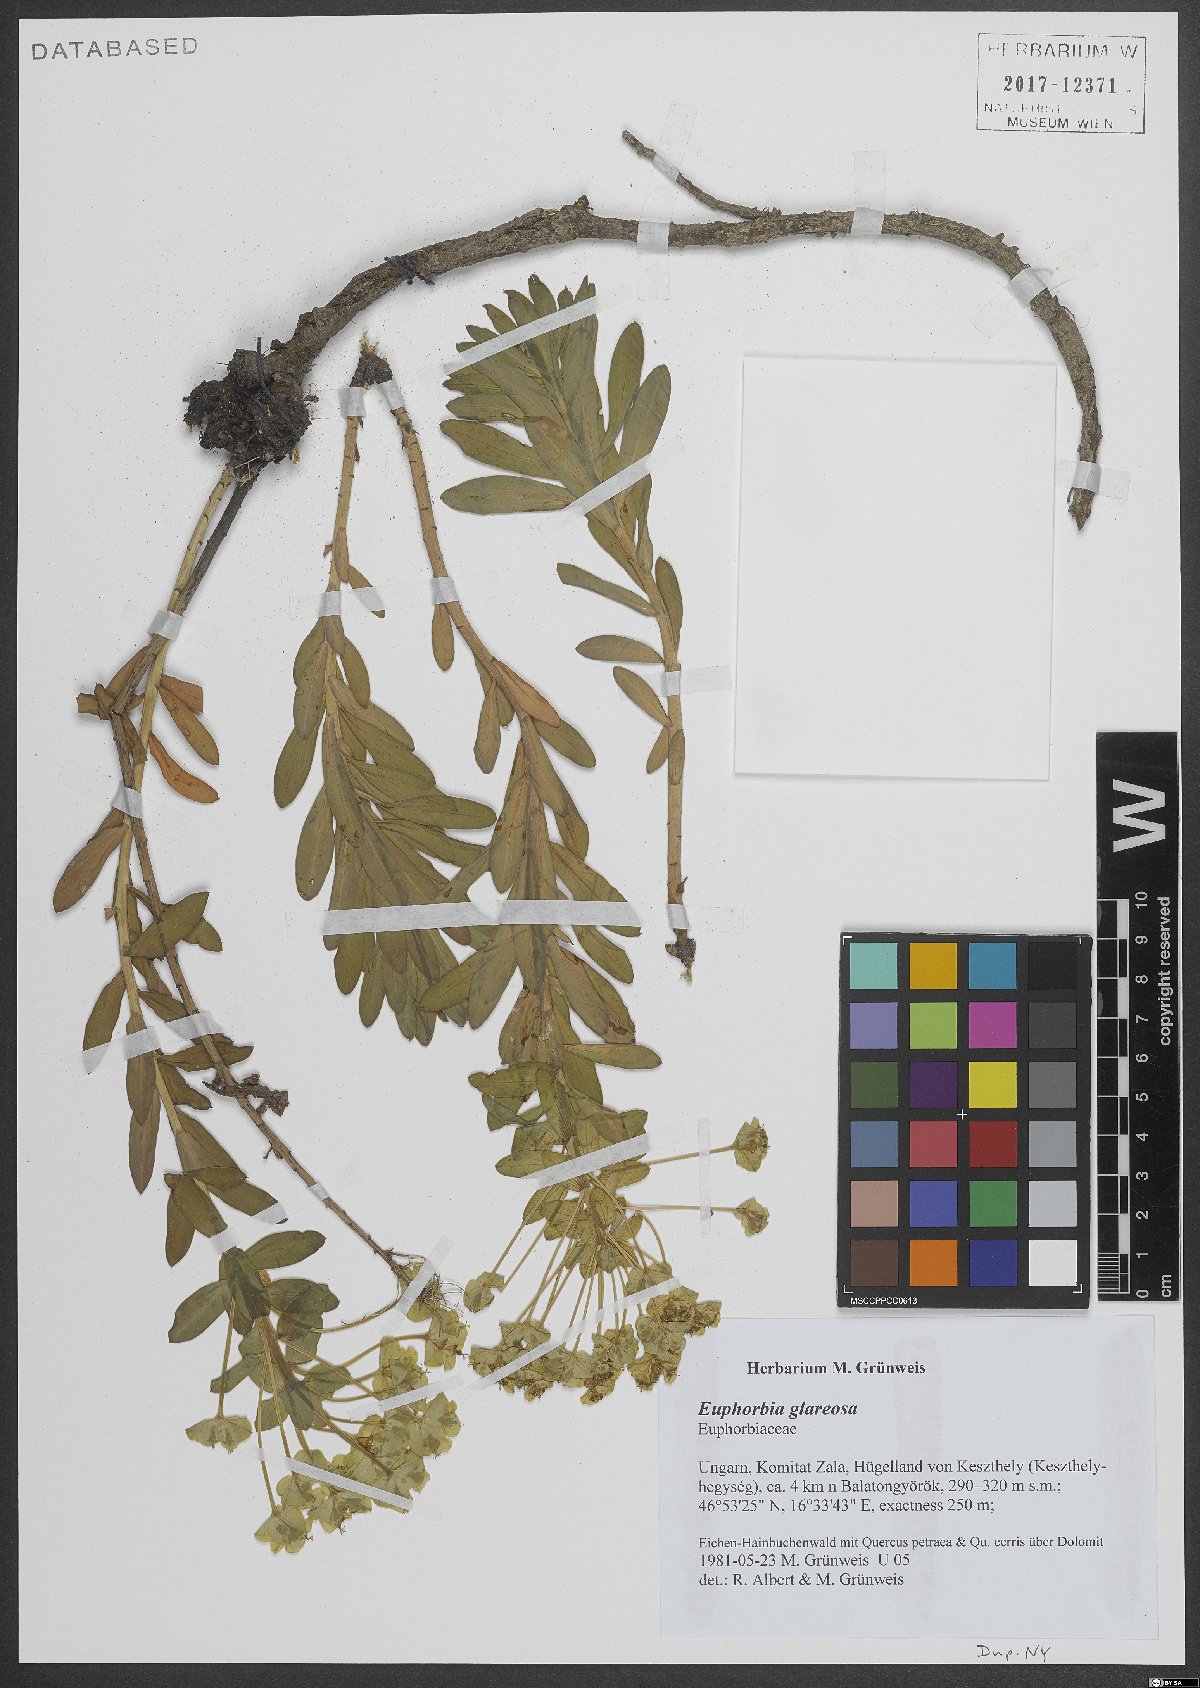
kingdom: Plantae
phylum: Tracheophyta
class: Magnoliopsida
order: Malpighiales
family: Euphorbiaceae
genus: Euphorbia
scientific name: Euphorbia glareosa
